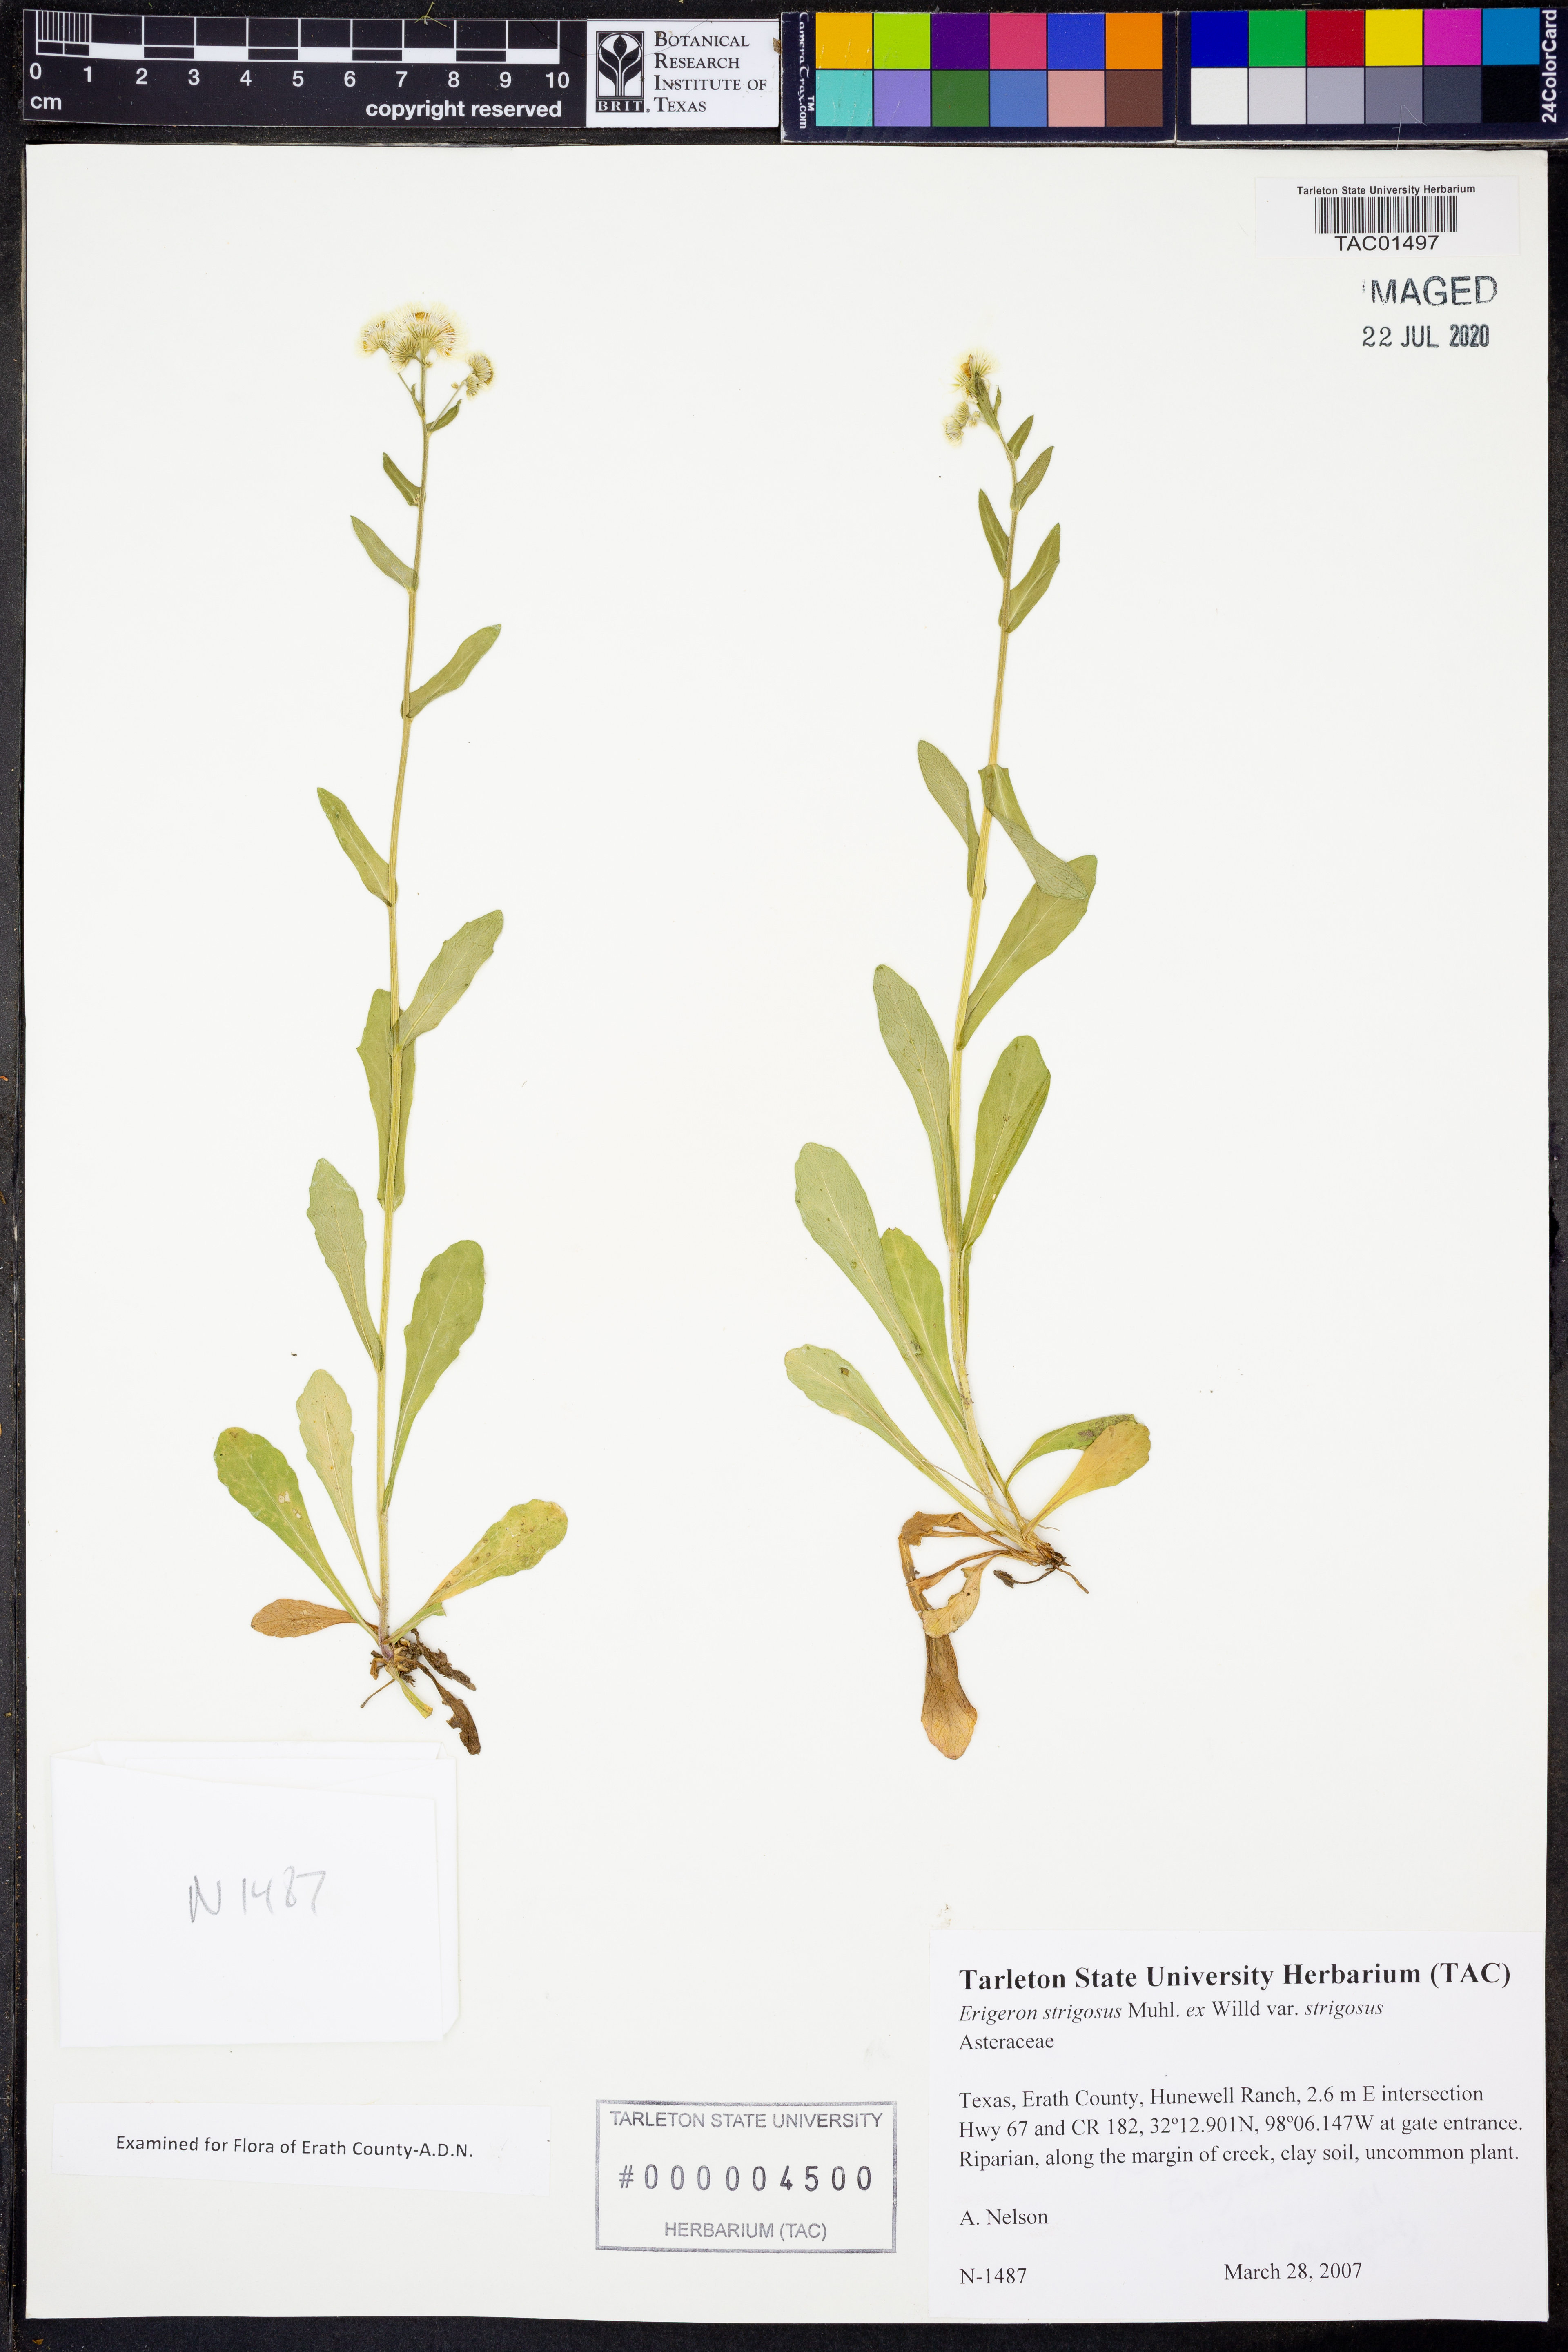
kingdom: Plantae
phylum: Tracheophyta
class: Magnoliopsida
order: Asterales
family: Asteraceae
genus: Erigeron
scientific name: Erigeron strigosus
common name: Common eastern fleabane
